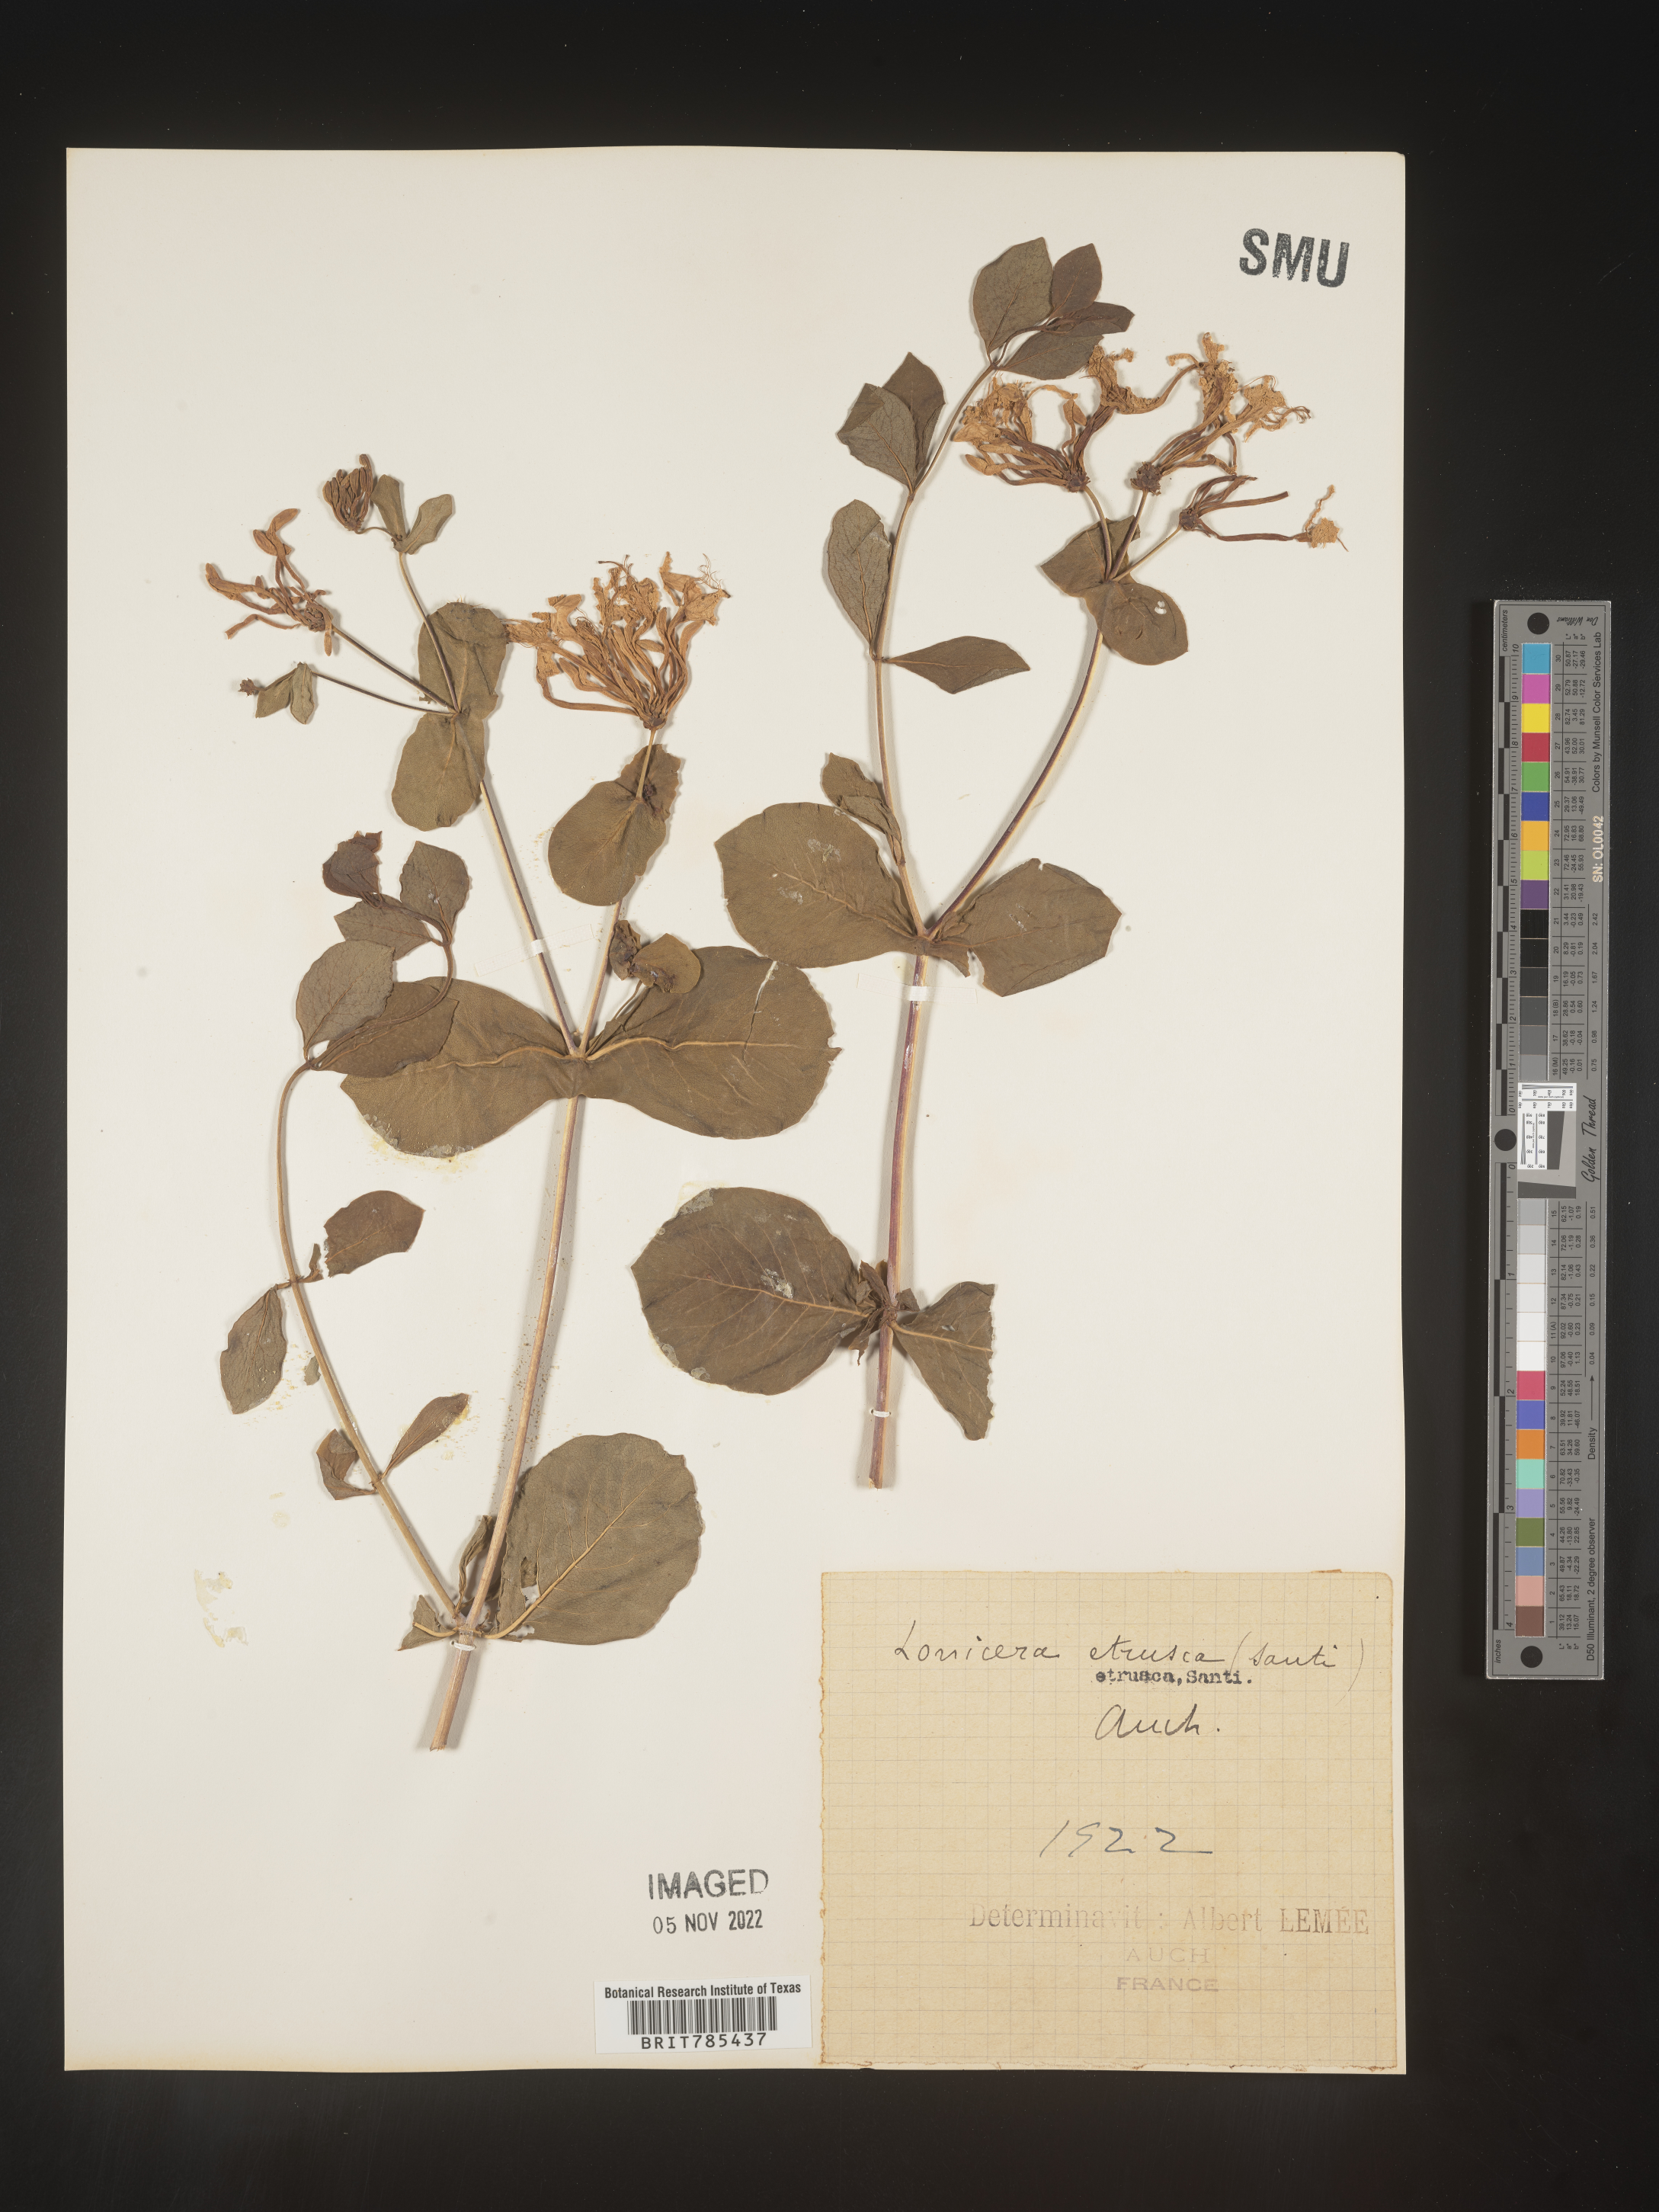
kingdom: Plantae
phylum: Tracheophyta
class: Magnoliopsida
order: Dipsacales
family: Caprifoliaceae
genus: Lonicera
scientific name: Lonicera
